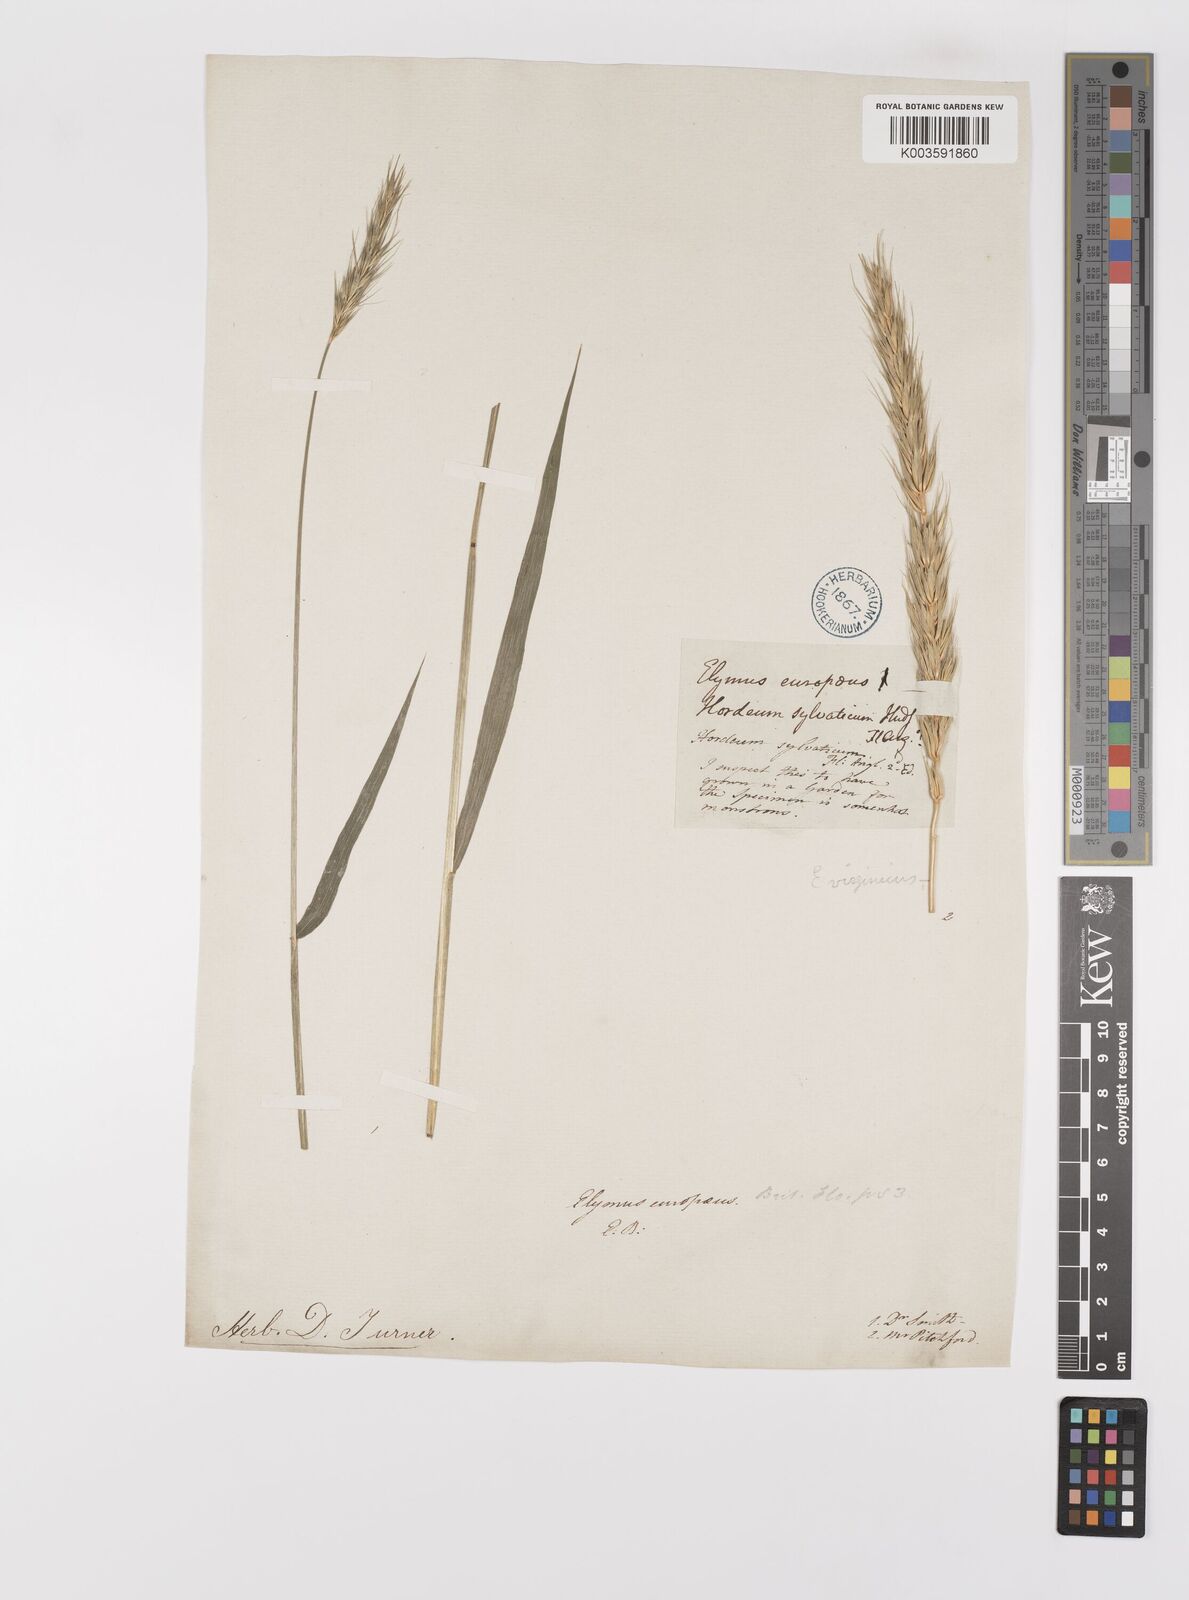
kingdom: Plantae
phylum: Tracheophyta
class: Liliopsida
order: Poales
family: Poaceae
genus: Hordelymus
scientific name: Hordelymus europaeus
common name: Wood-barley
